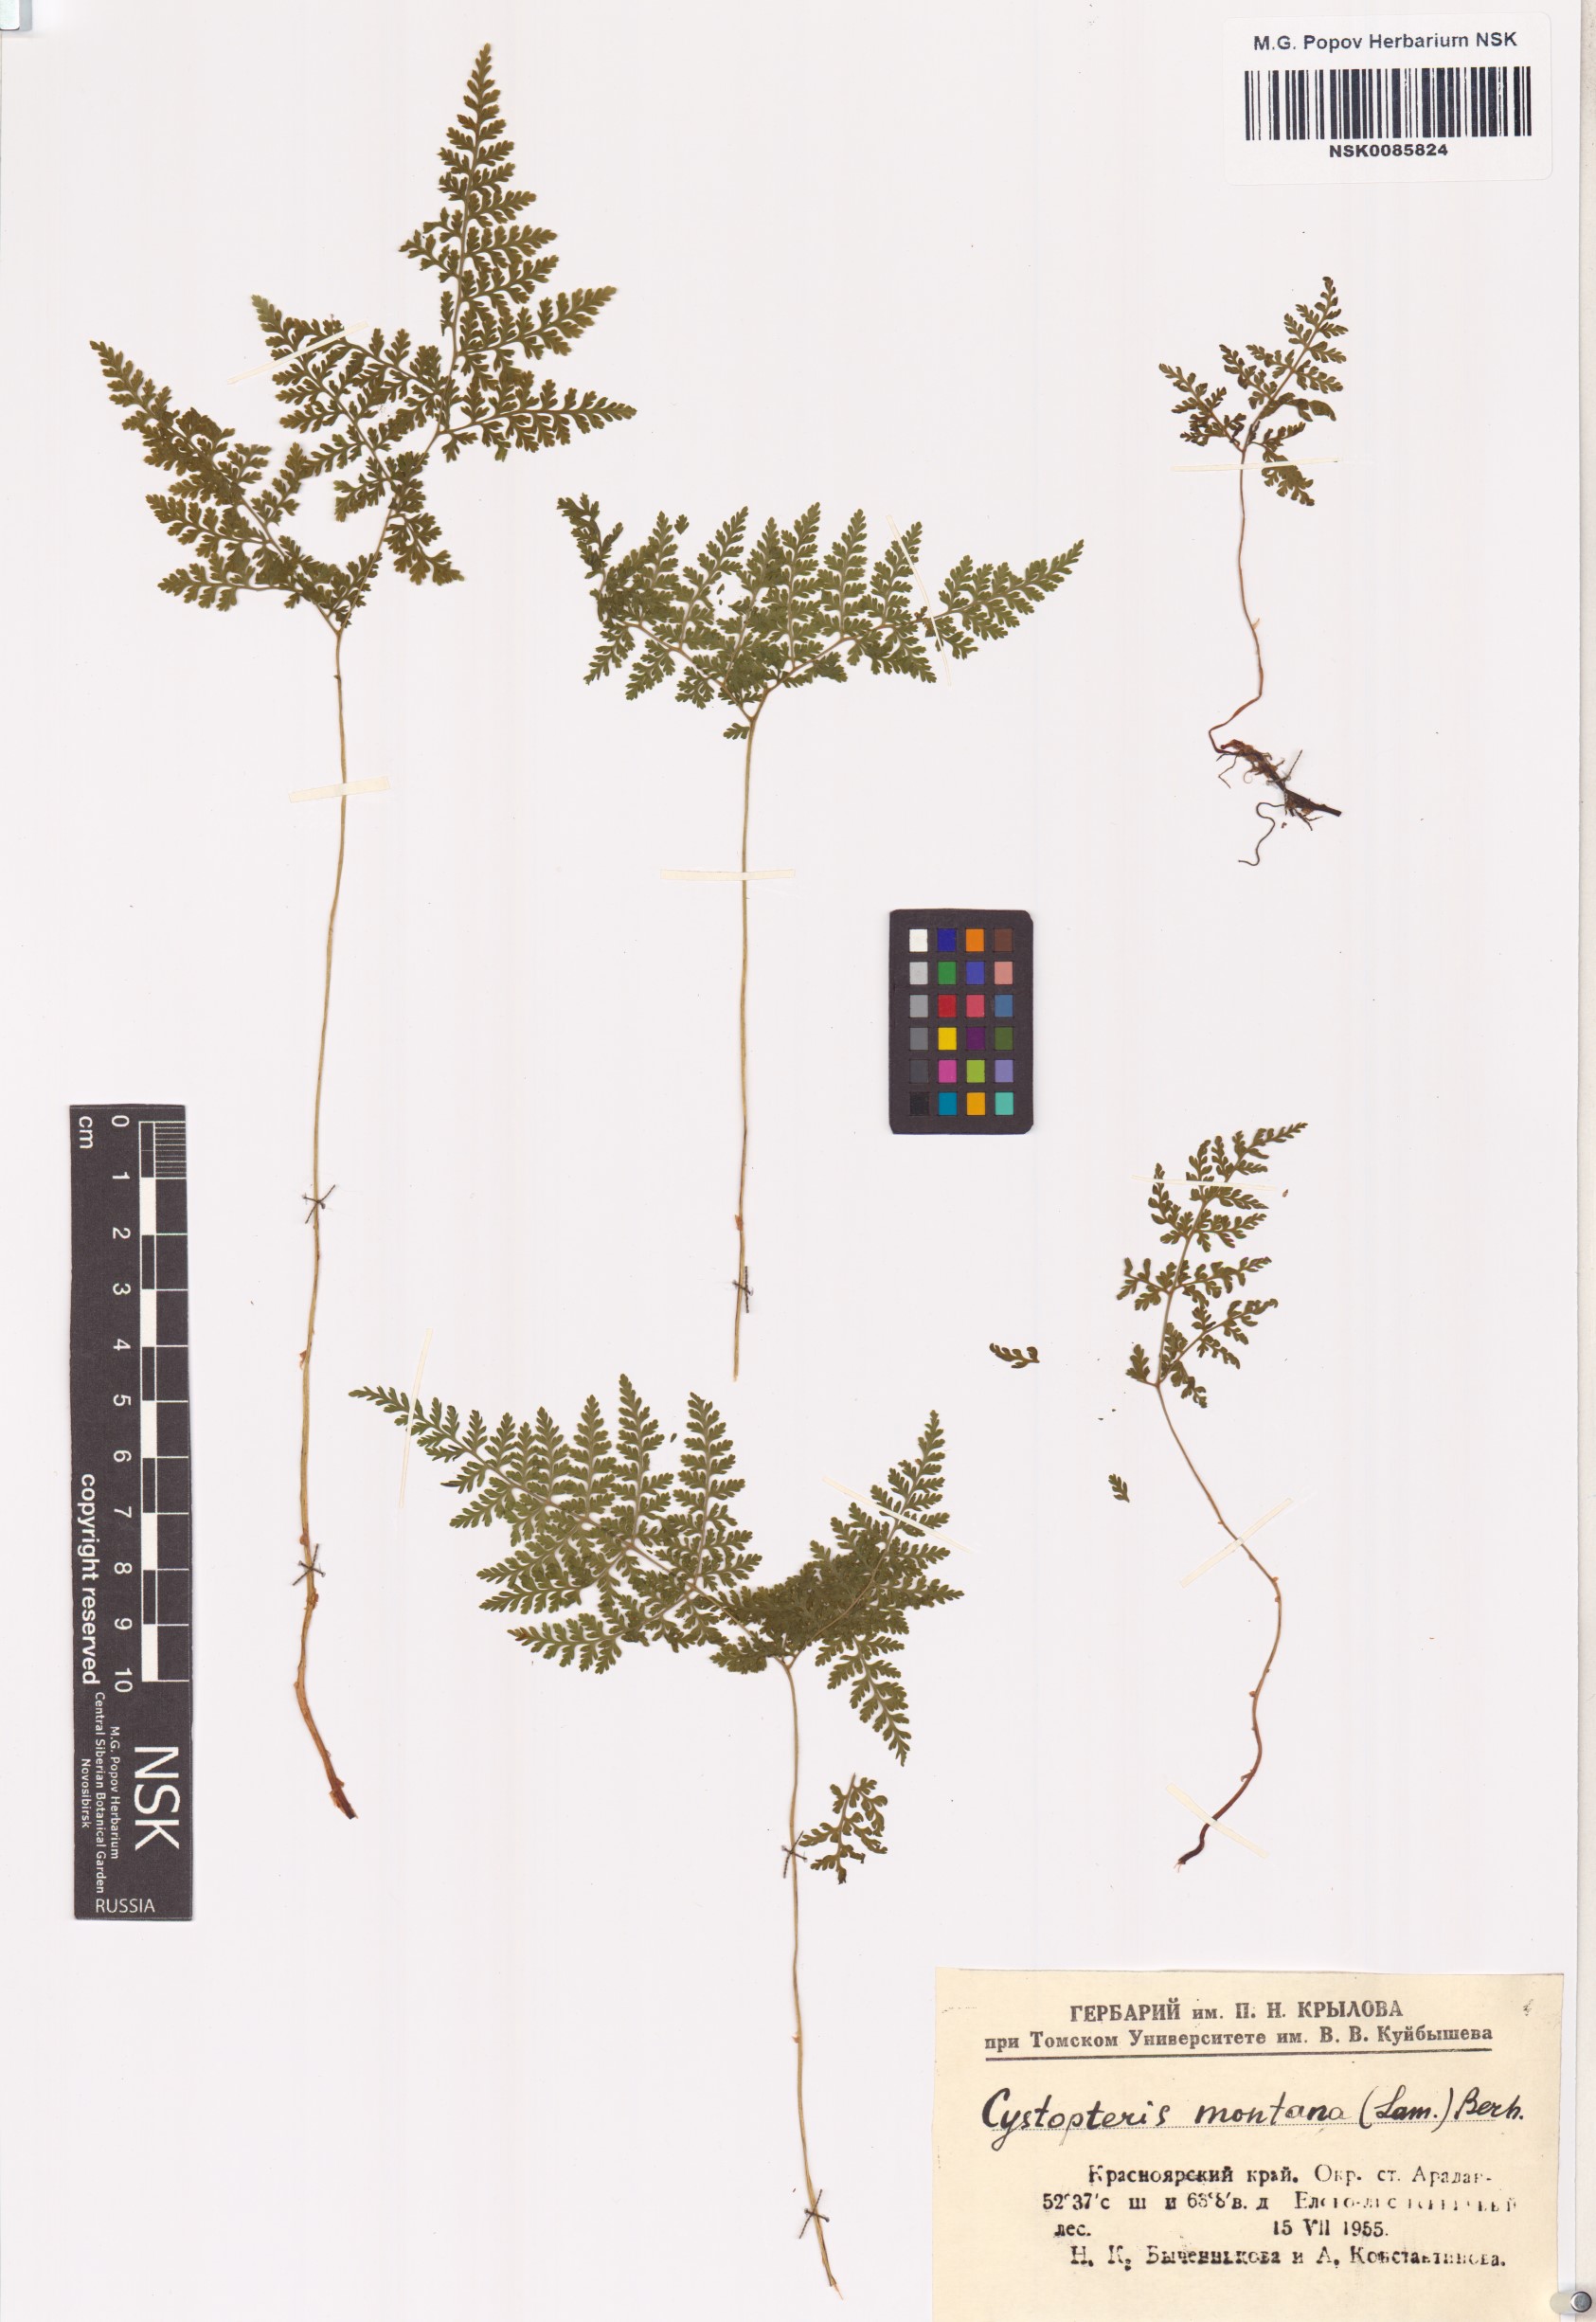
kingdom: Plantae
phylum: Tracheophyta
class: Polypodiopsida
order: Polypodiales
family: Cystopteridaceae
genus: Cystopteris
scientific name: Cystopteris montana
